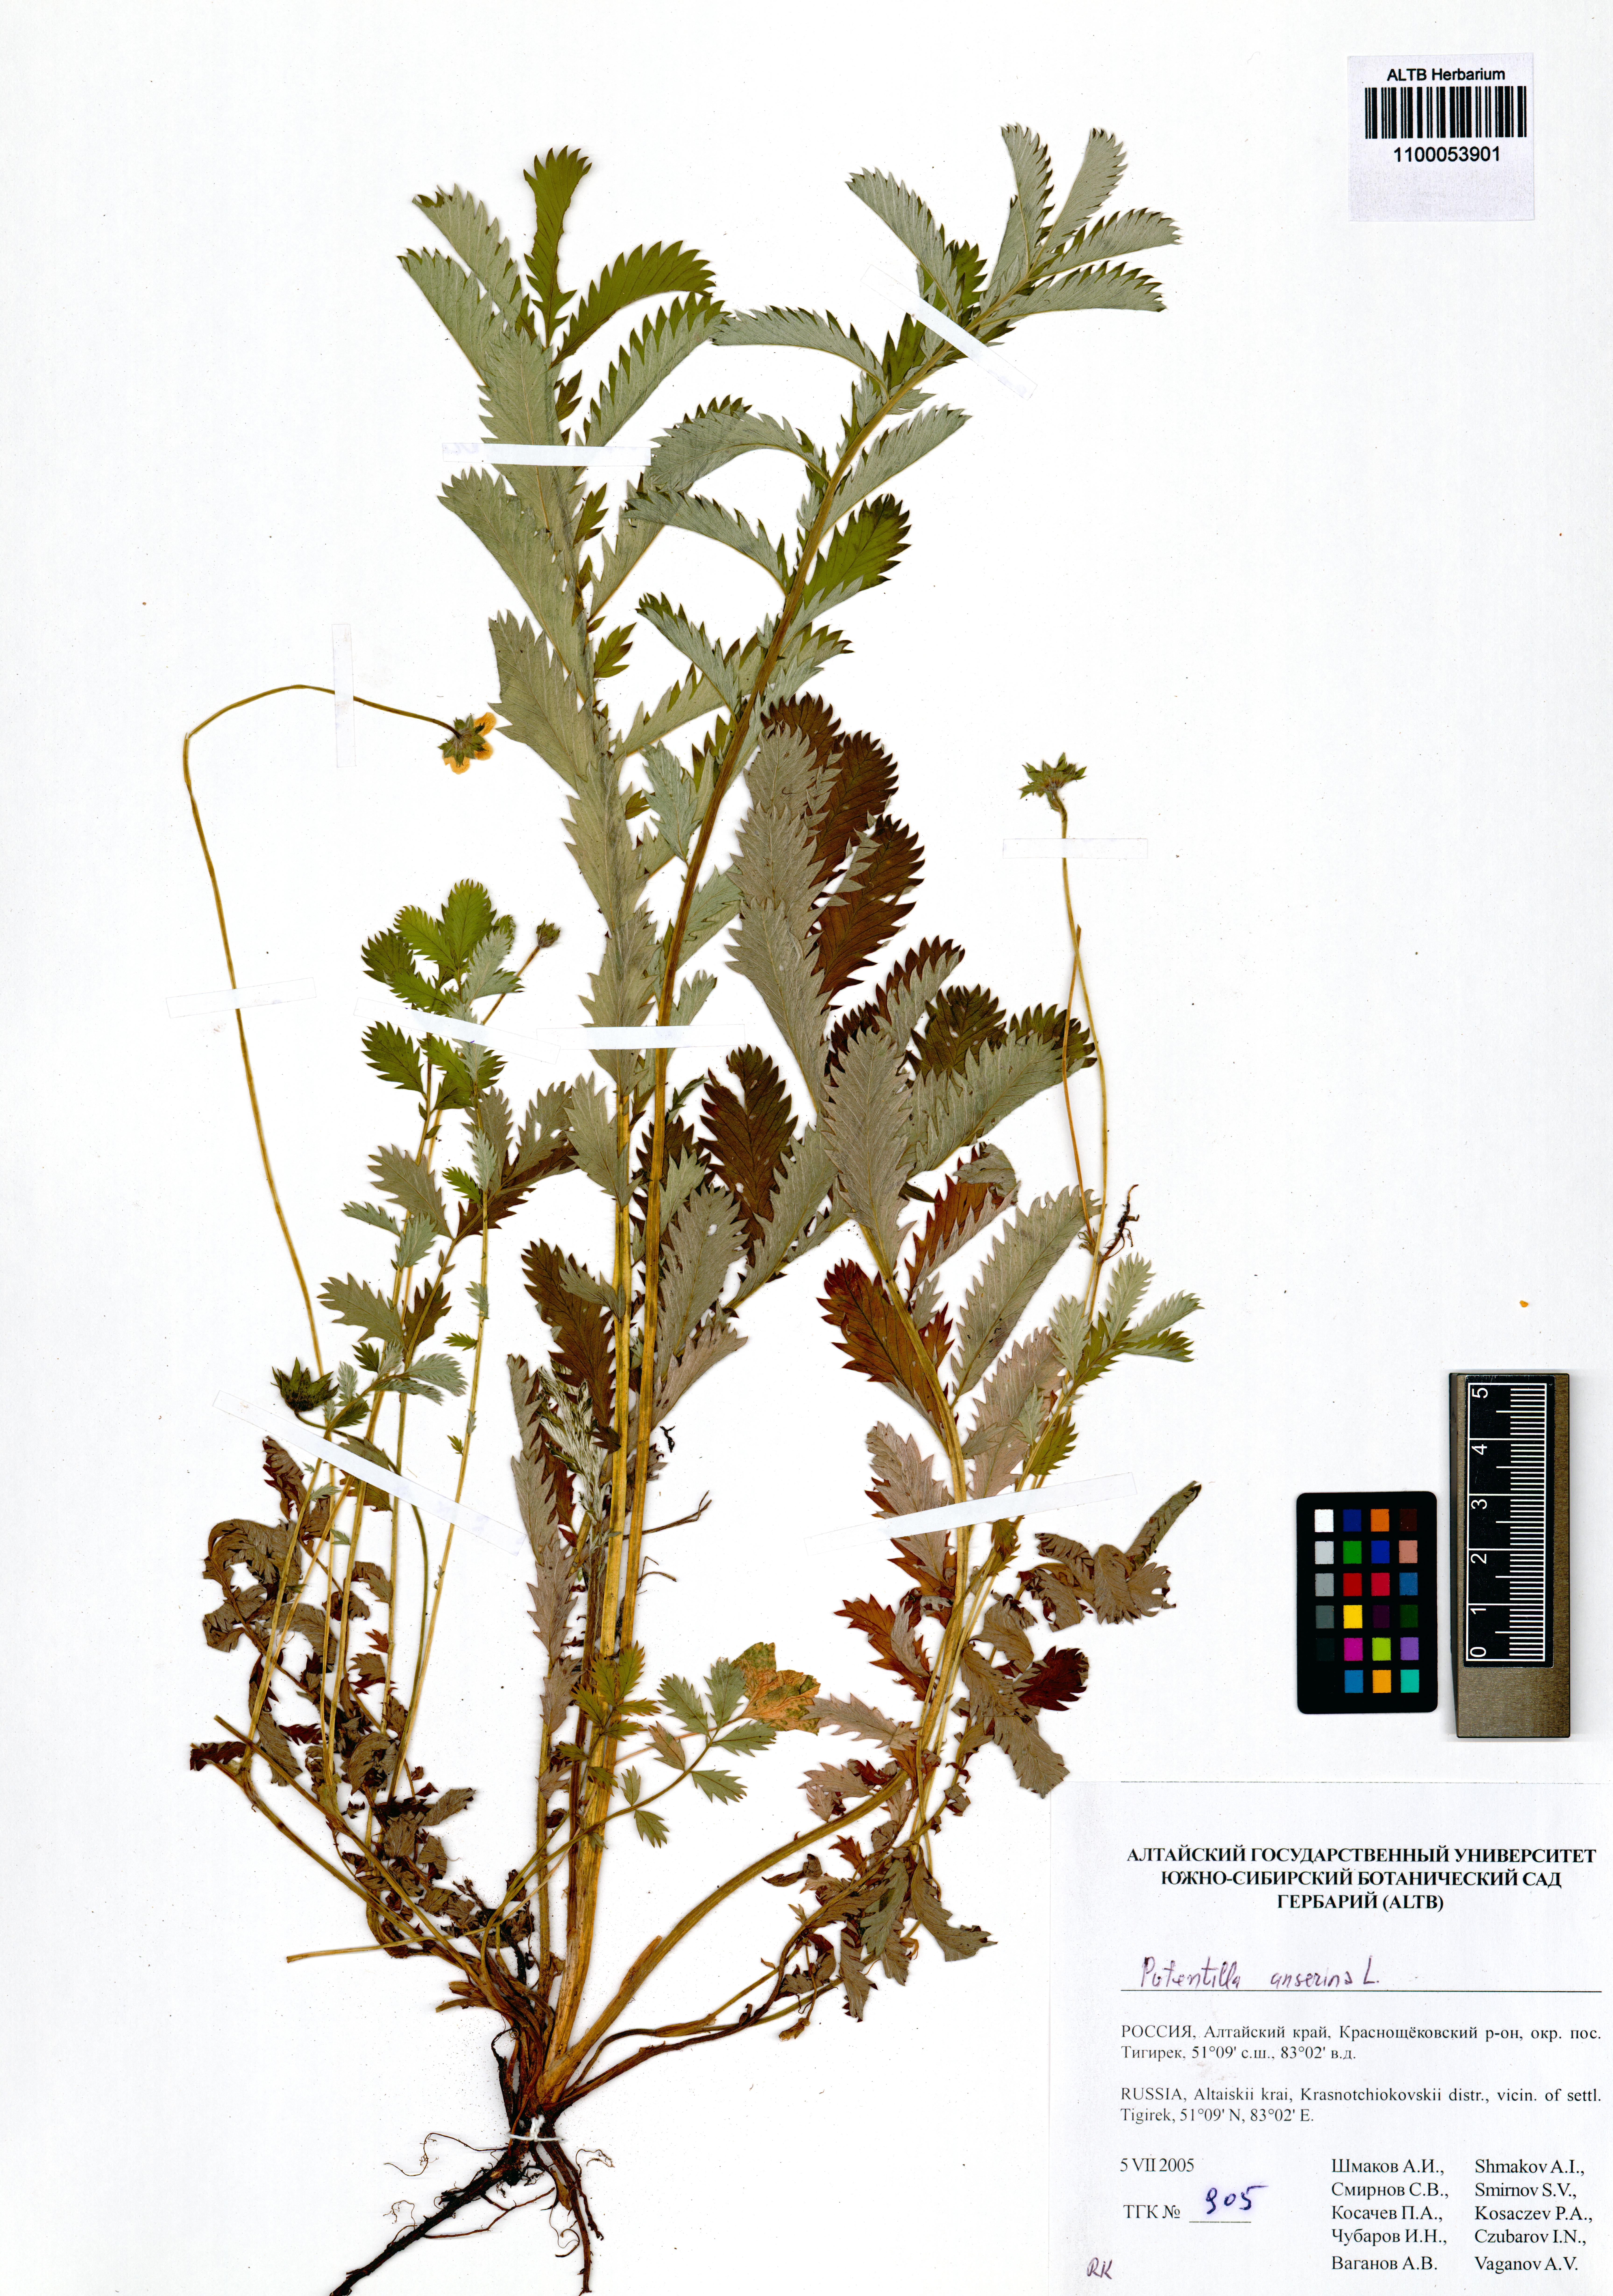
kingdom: Plantae
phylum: Tracheophyta
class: Magnoliopsida
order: Rosales
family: Rosaceae
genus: Argentina
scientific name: Argentina anserina
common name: Common silverweed
